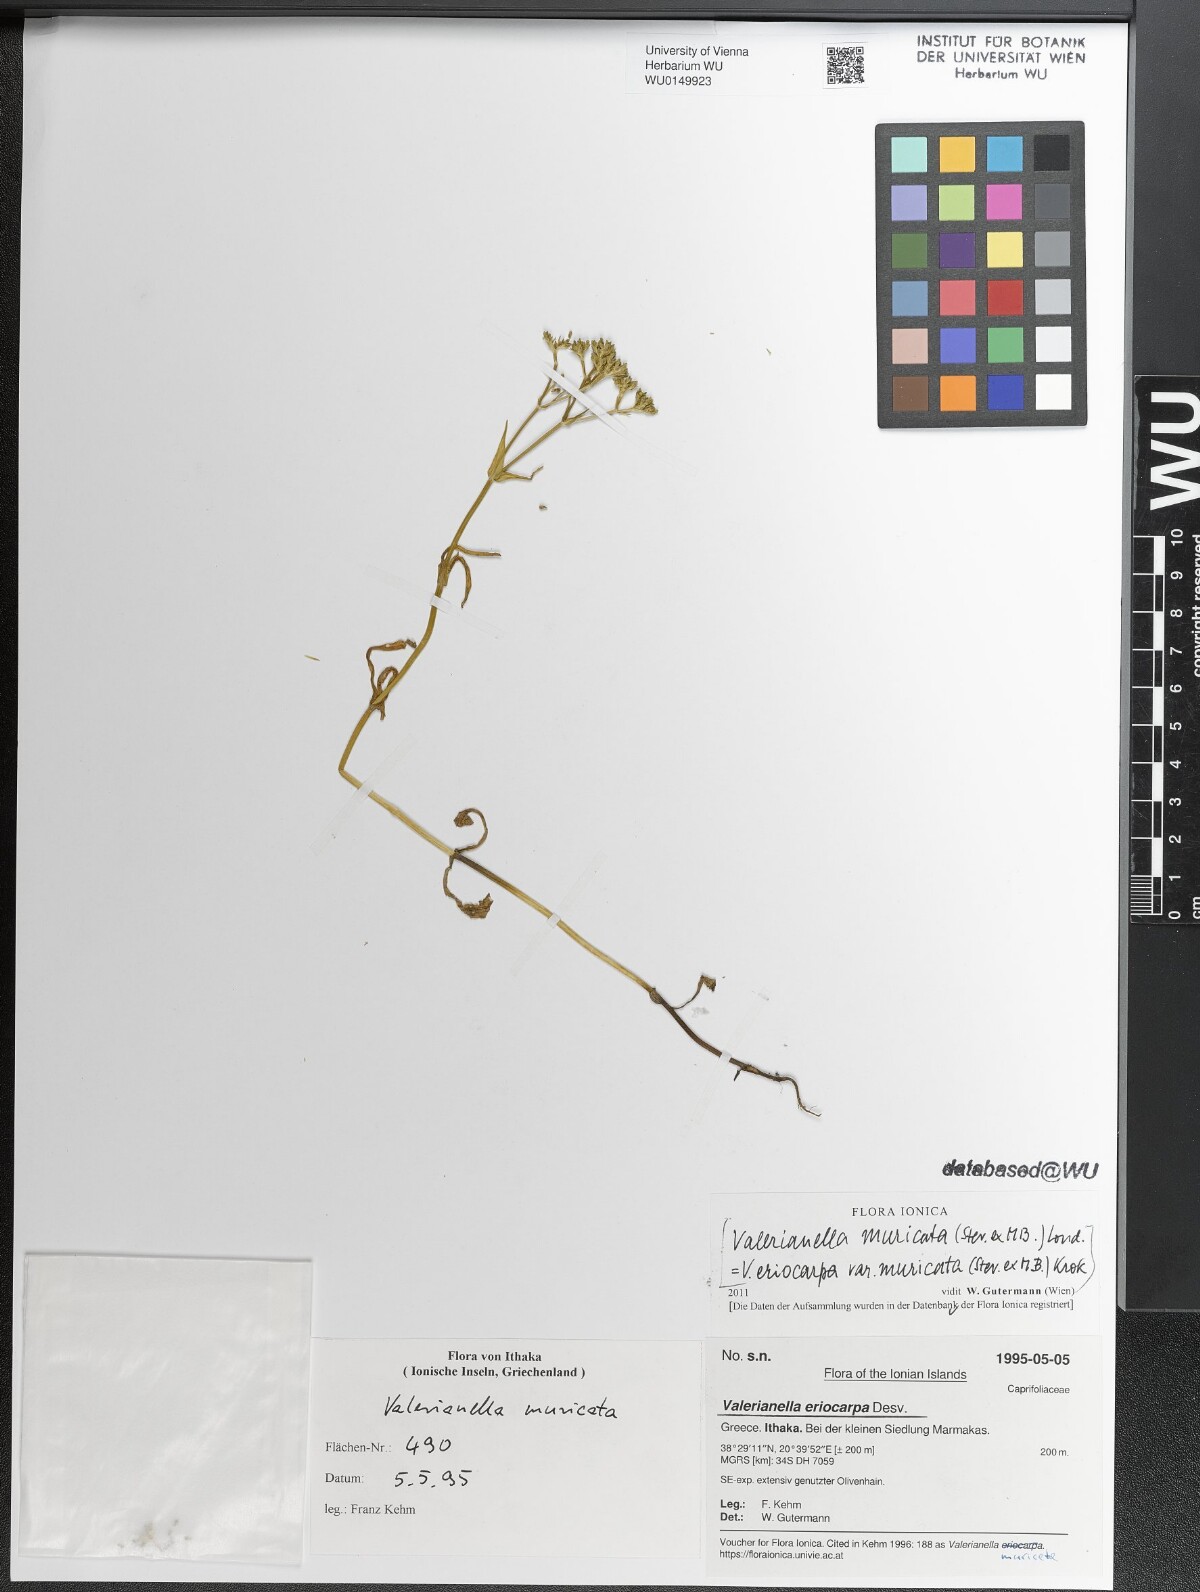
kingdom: Plantae
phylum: Tracheophyta
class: Magnoliopsida
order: Dipsacales
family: Caprifoliaceae
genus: Valerianella
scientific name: Valerianella eriocarpa
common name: Hairy-fruited cornsalad
